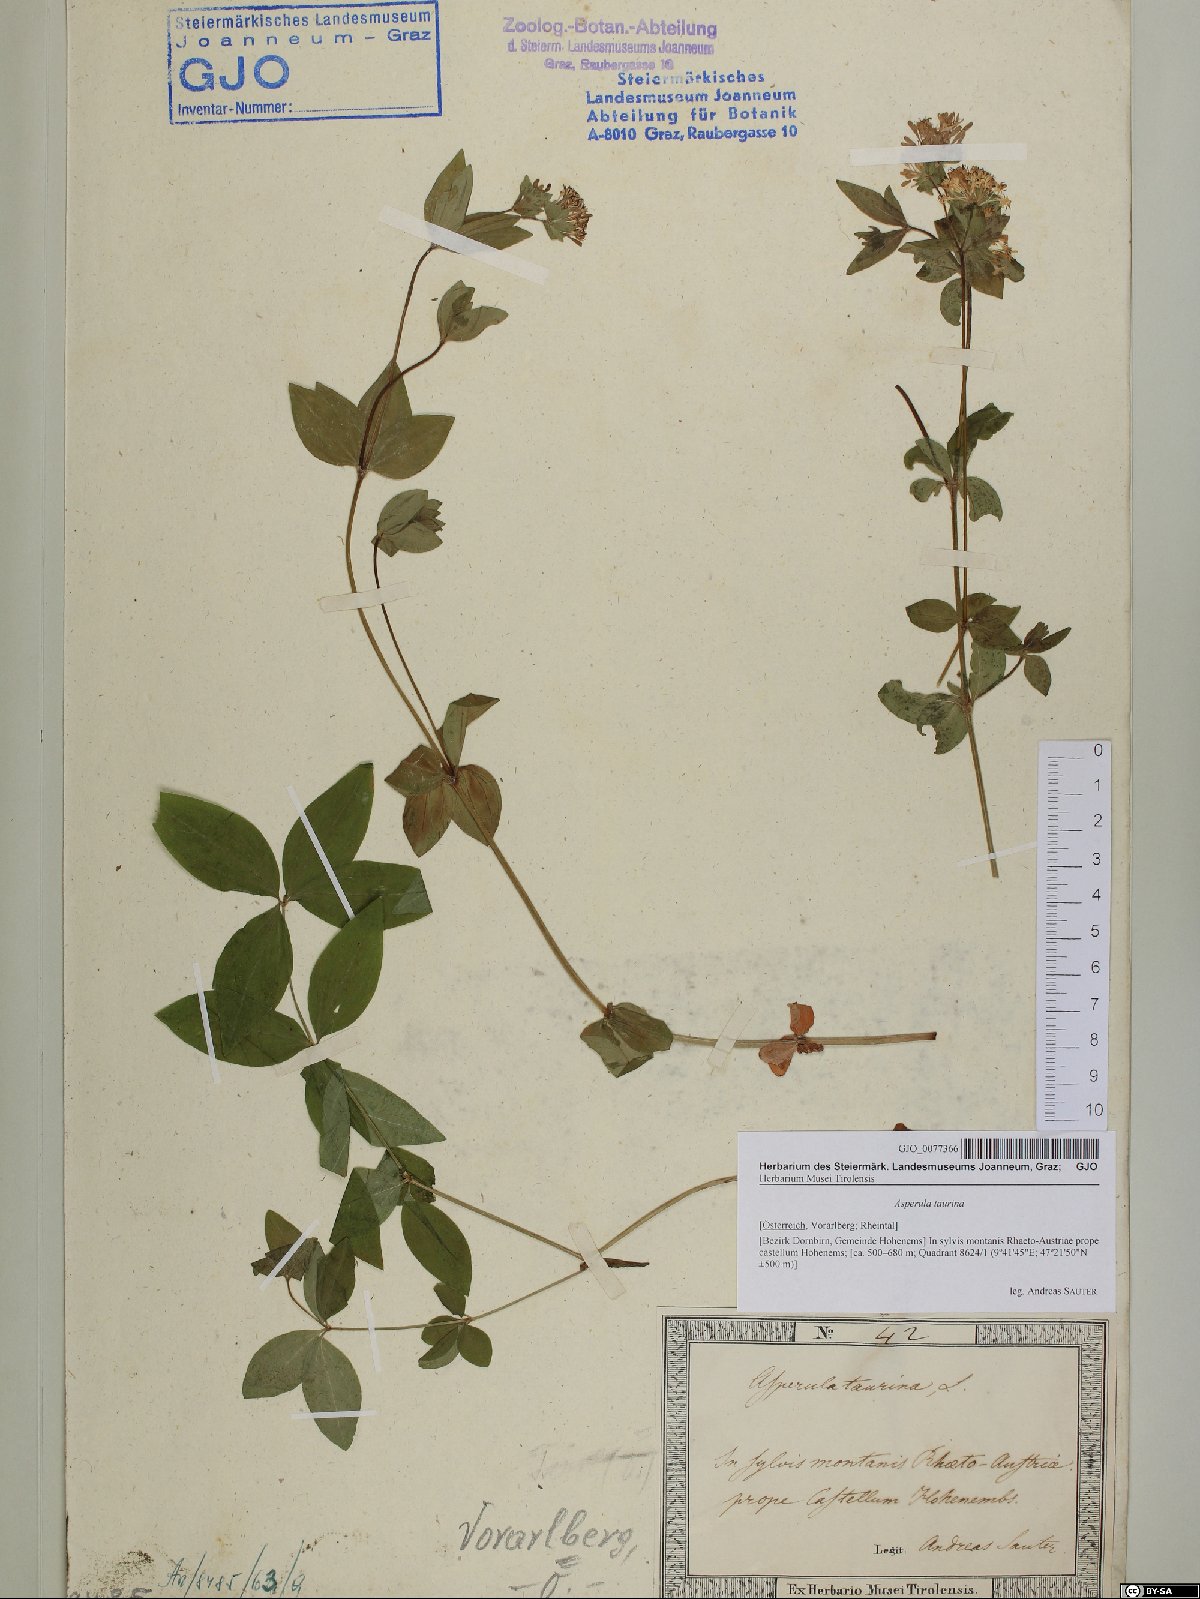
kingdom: Plantae
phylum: Tracheophyta
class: Magnoliopsida
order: Gentianales
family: Rubiaceae
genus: Asperula
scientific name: Asperula taurina
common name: Pink woodruff
